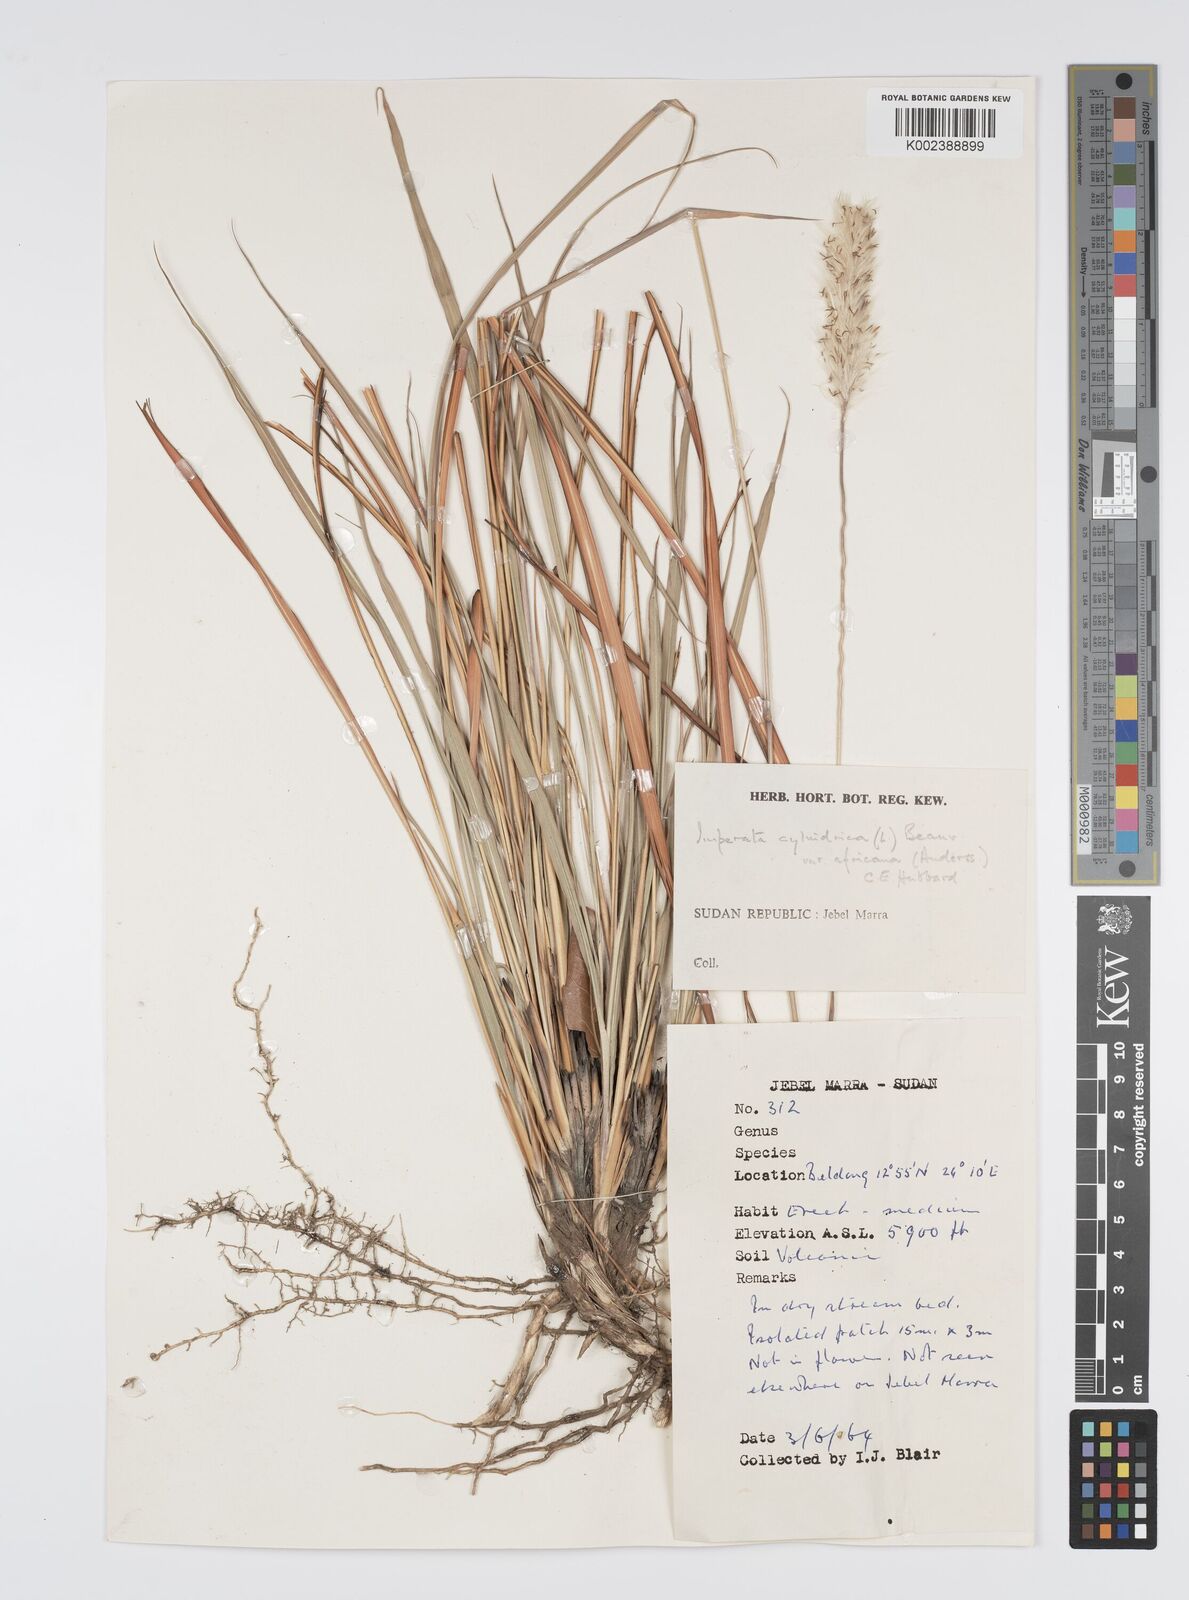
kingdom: Plantae
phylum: Tracheophyta
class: Liliopsida
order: Poales
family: Poaceae
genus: Imperata
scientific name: Imperata cylindrica
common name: Cogongrass
